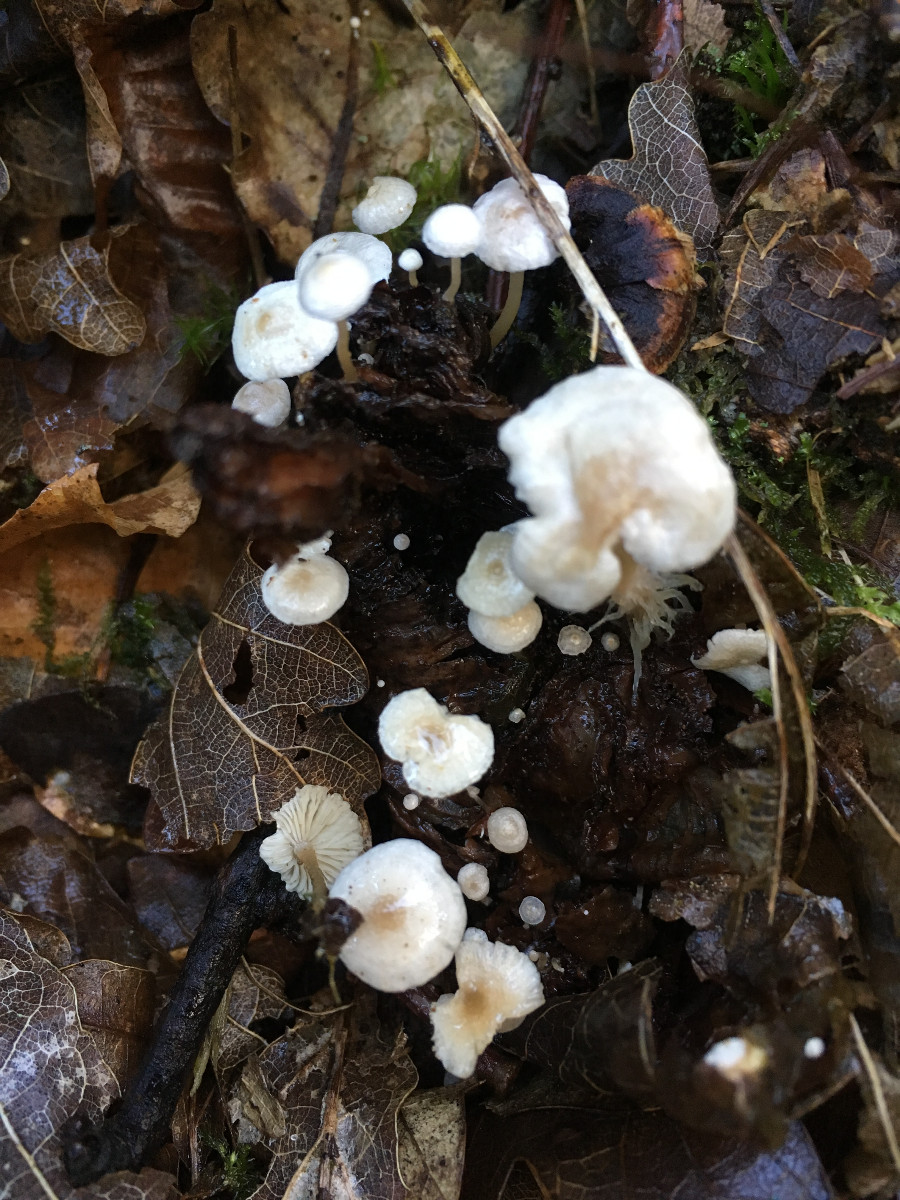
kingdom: Fungi
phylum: Basidiomycota
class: Agaricomycetes
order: Agaricales
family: Tricholomataceae
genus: Collybia
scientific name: Collybia cirrhata
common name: silke-lighat
